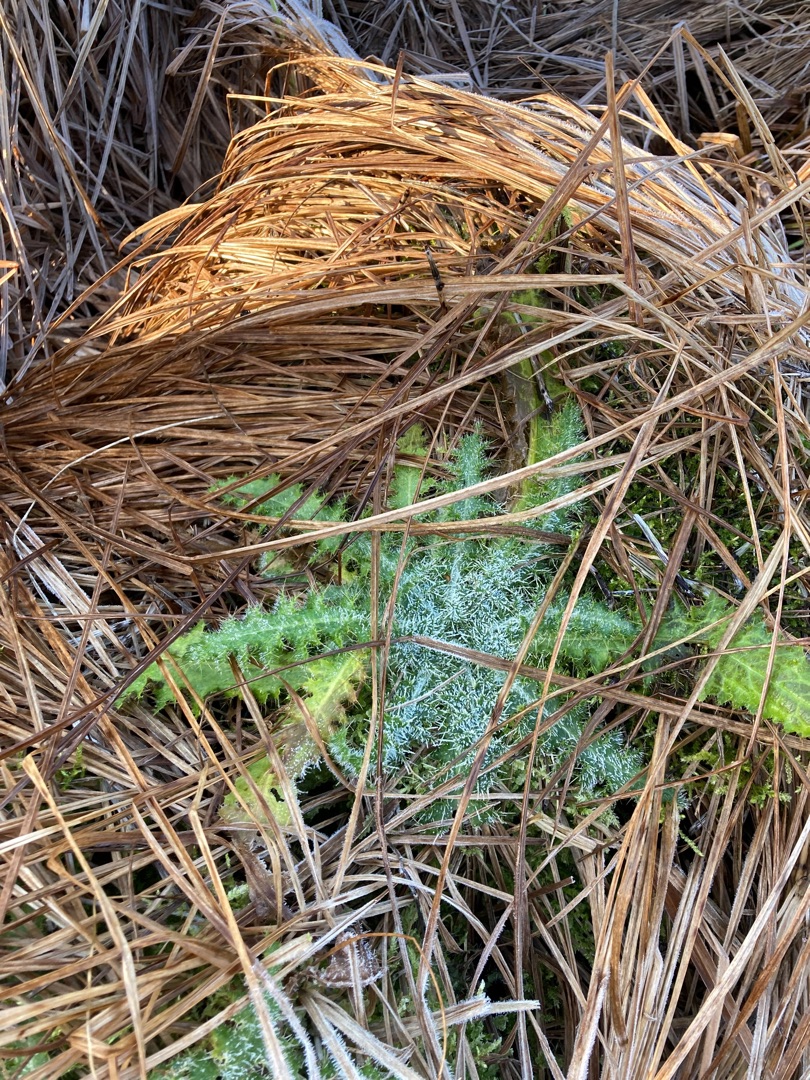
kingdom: Plantae
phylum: Tracheophyta
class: Magnoliopsida
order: Asterales
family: Asteraceae
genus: Cirsium
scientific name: Cirsium palustre
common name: Kær-tidsel
